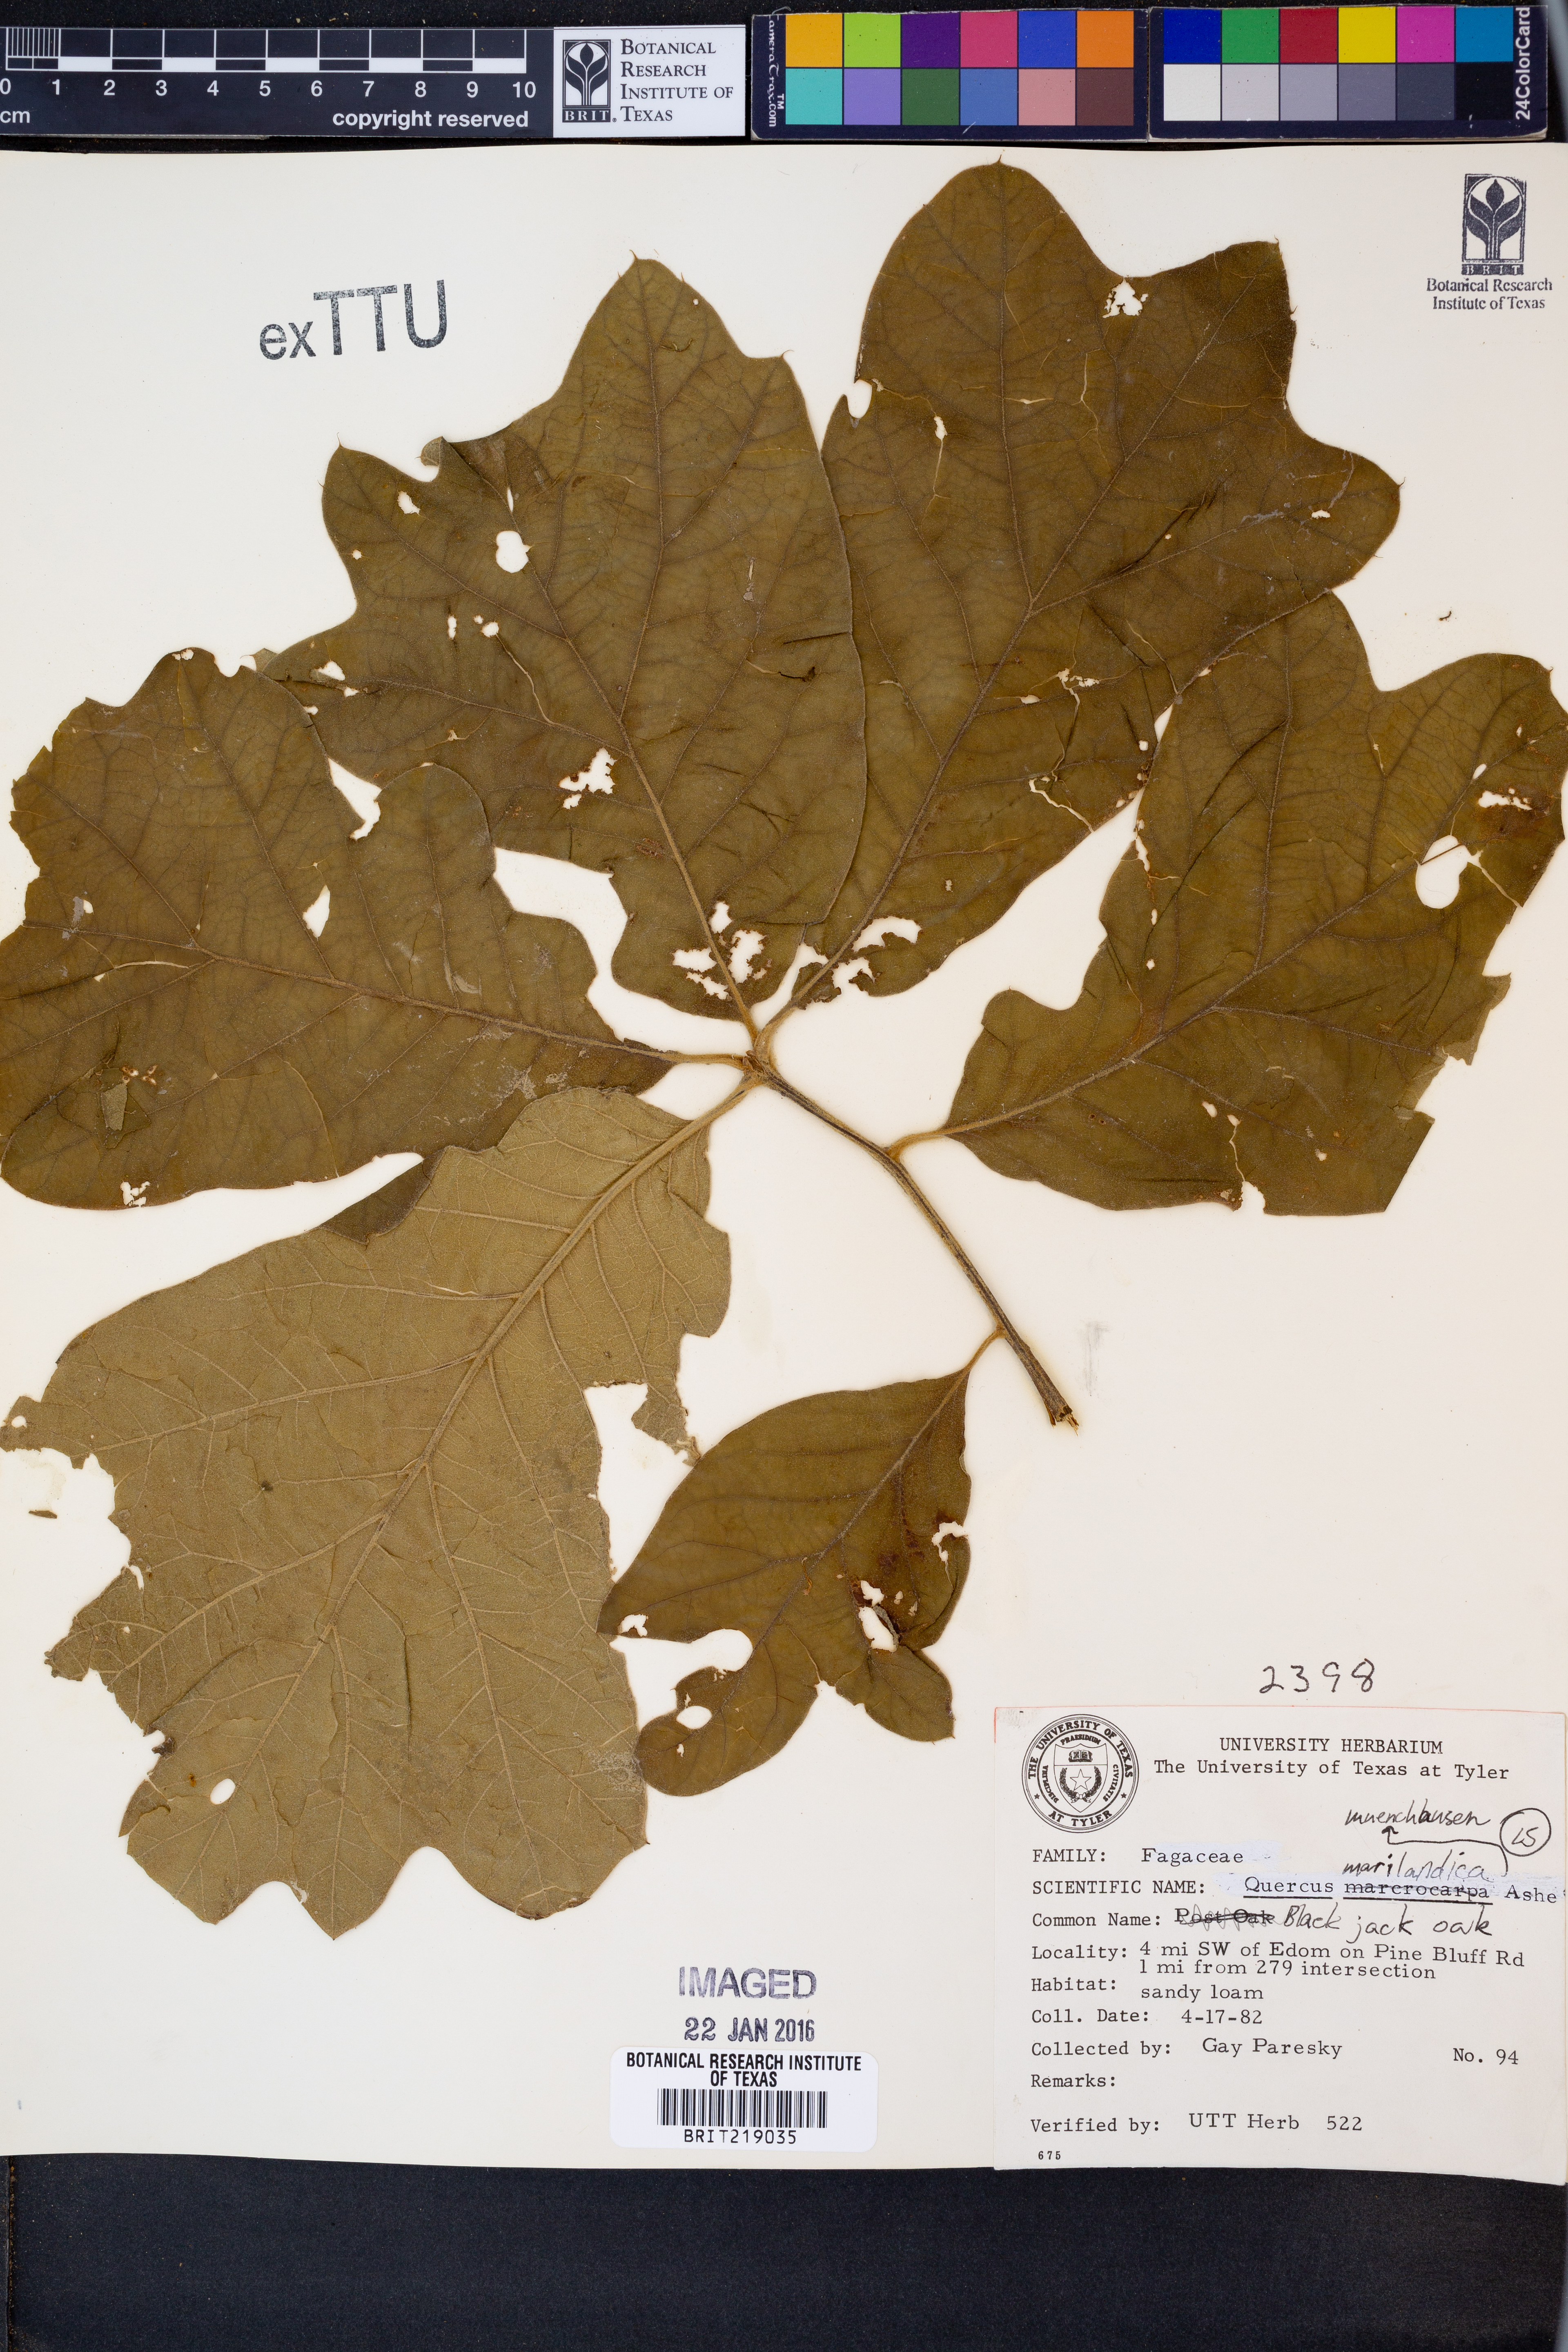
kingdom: Plantae
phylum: Tracheophyta
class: Magnoliopsida
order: Fagales
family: Fagaceae
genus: Quercus
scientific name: Quercus marilandica
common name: Blackjack oak
